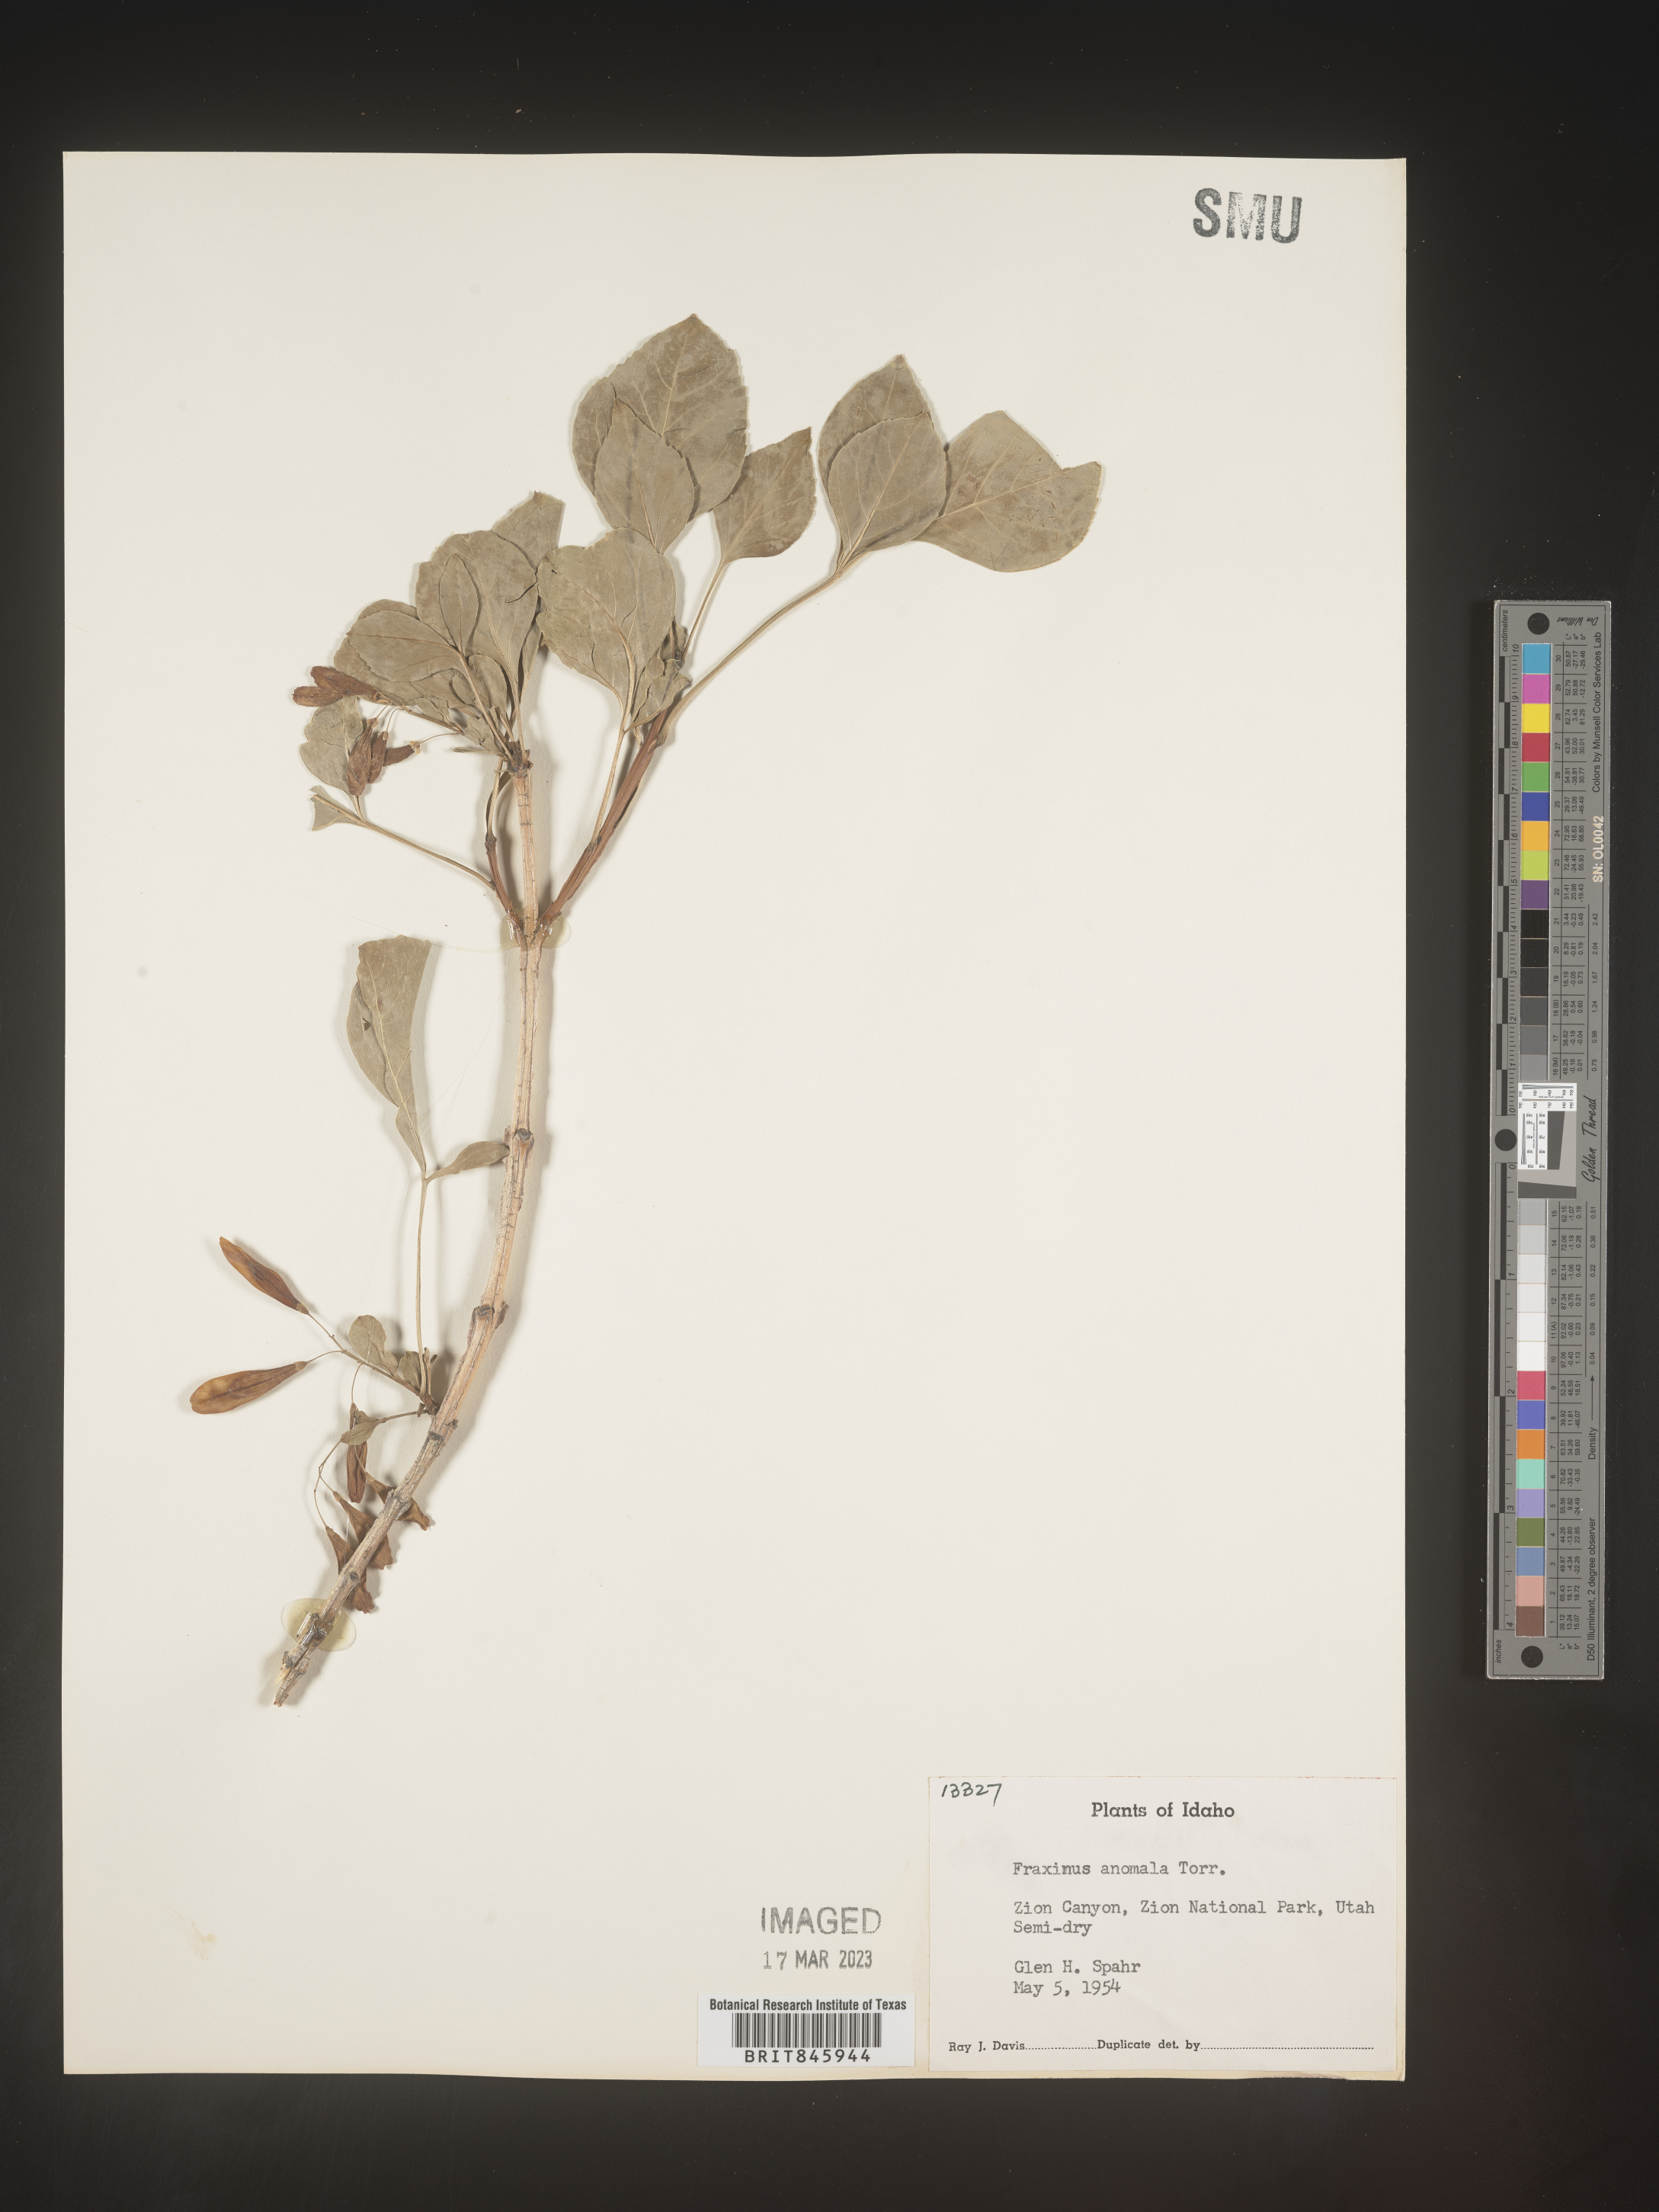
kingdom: Plantae
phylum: Tracheophyta
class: Magnoliopsida
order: Lamiales
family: Oleaceae
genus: Fraxinus
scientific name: Fraxinus anomala
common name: Utah ash
